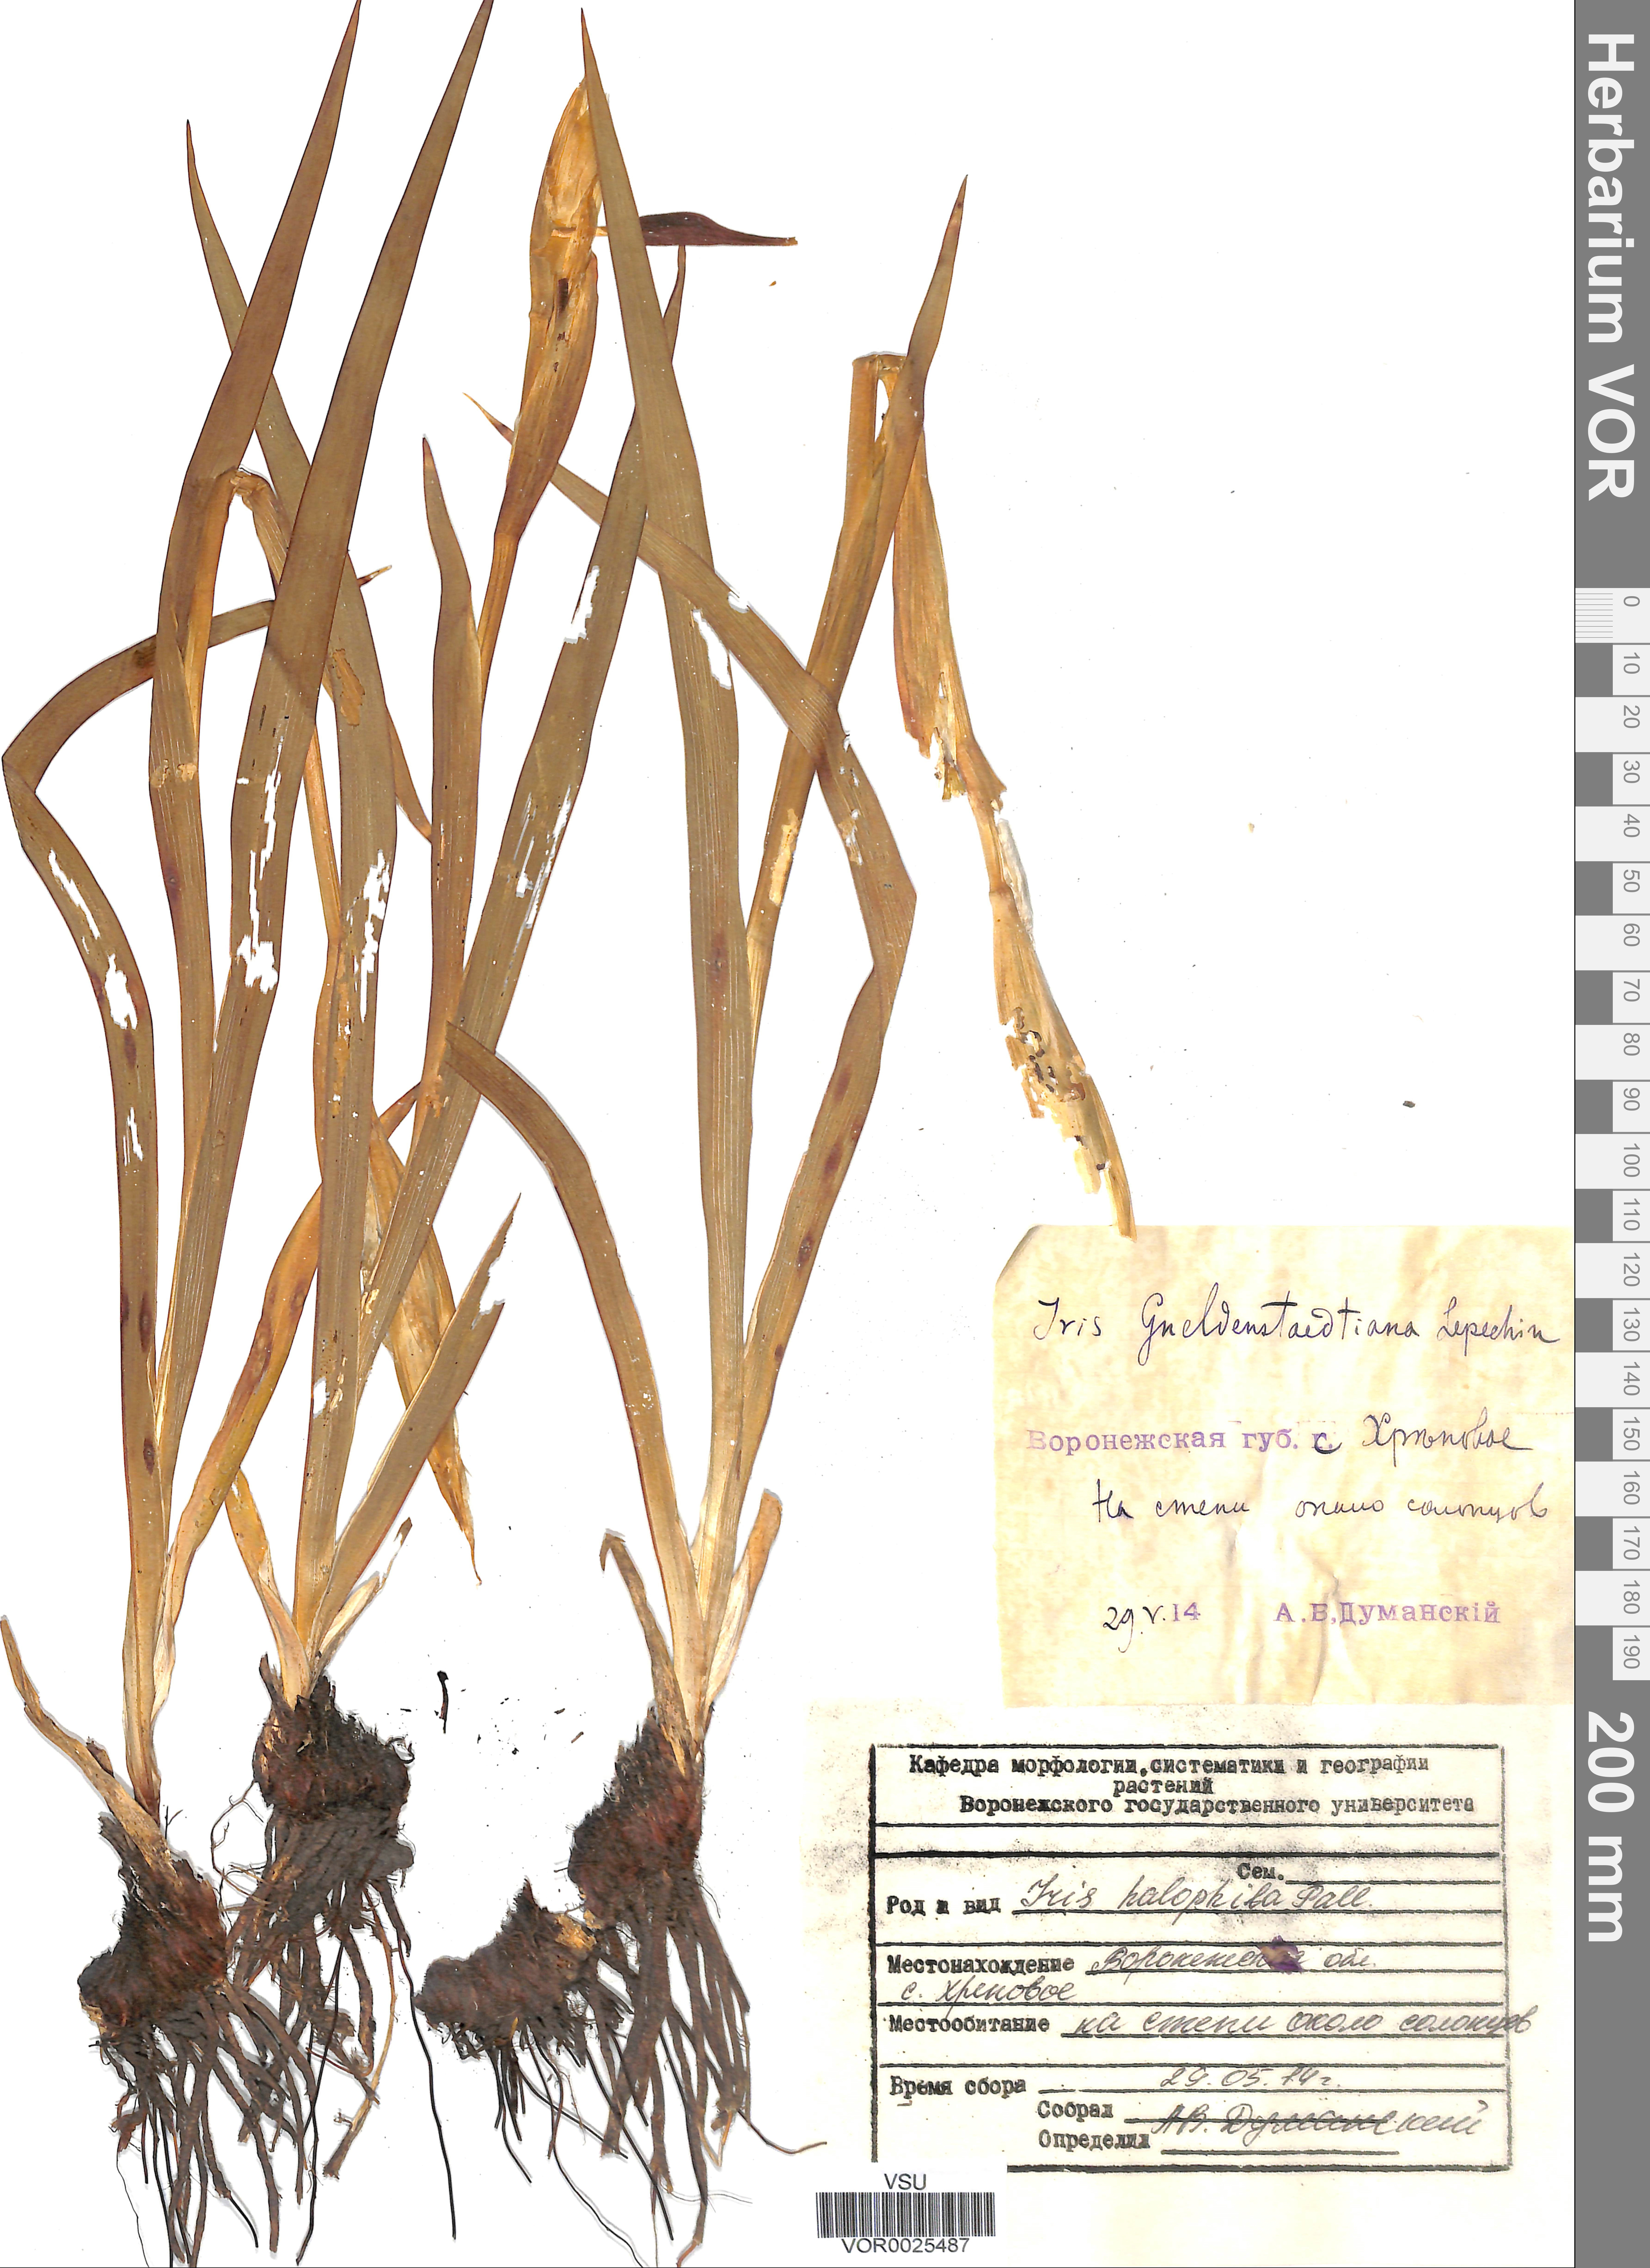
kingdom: Plantae
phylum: Tracheophyta
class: Liliopsida
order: Asparagales
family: Iridaceae
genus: Iris
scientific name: Iris halophila
